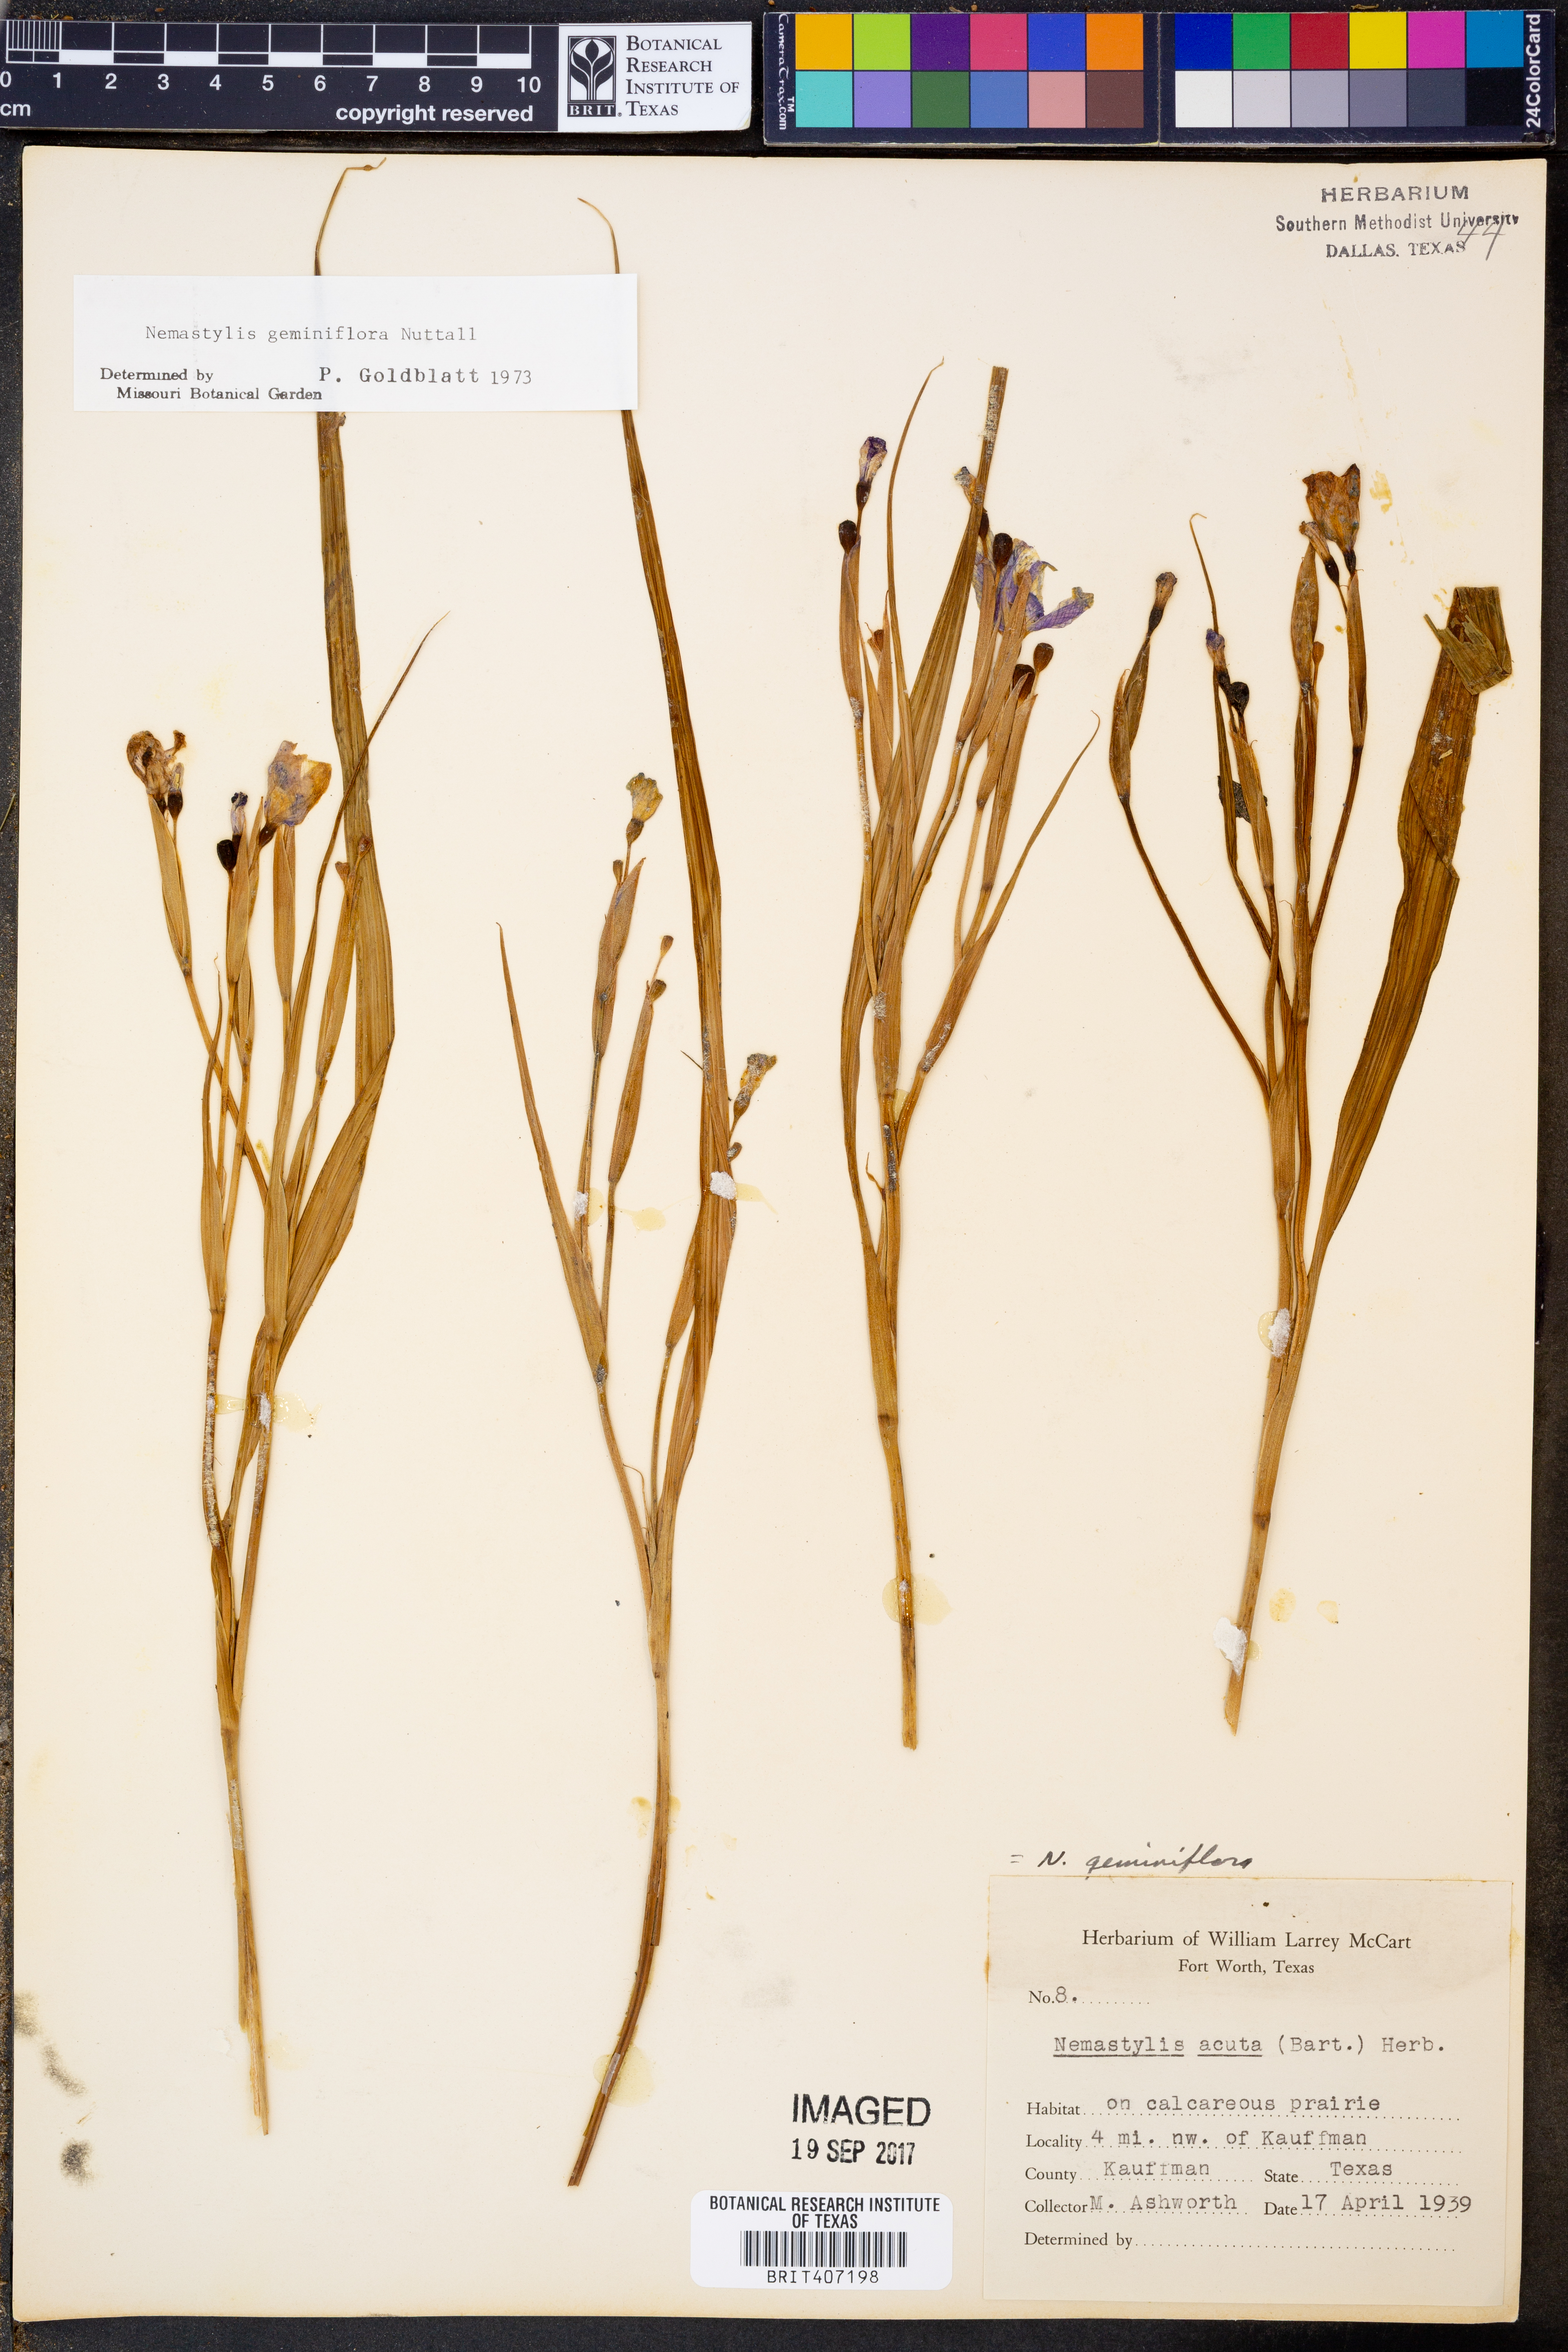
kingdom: Plantae
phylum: Tracheophyta
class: Liliopsida
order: Asparagales
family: Iridaceae
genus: Nemastylis
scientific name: Nemastylis geminiflora
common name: Prairie celestial
